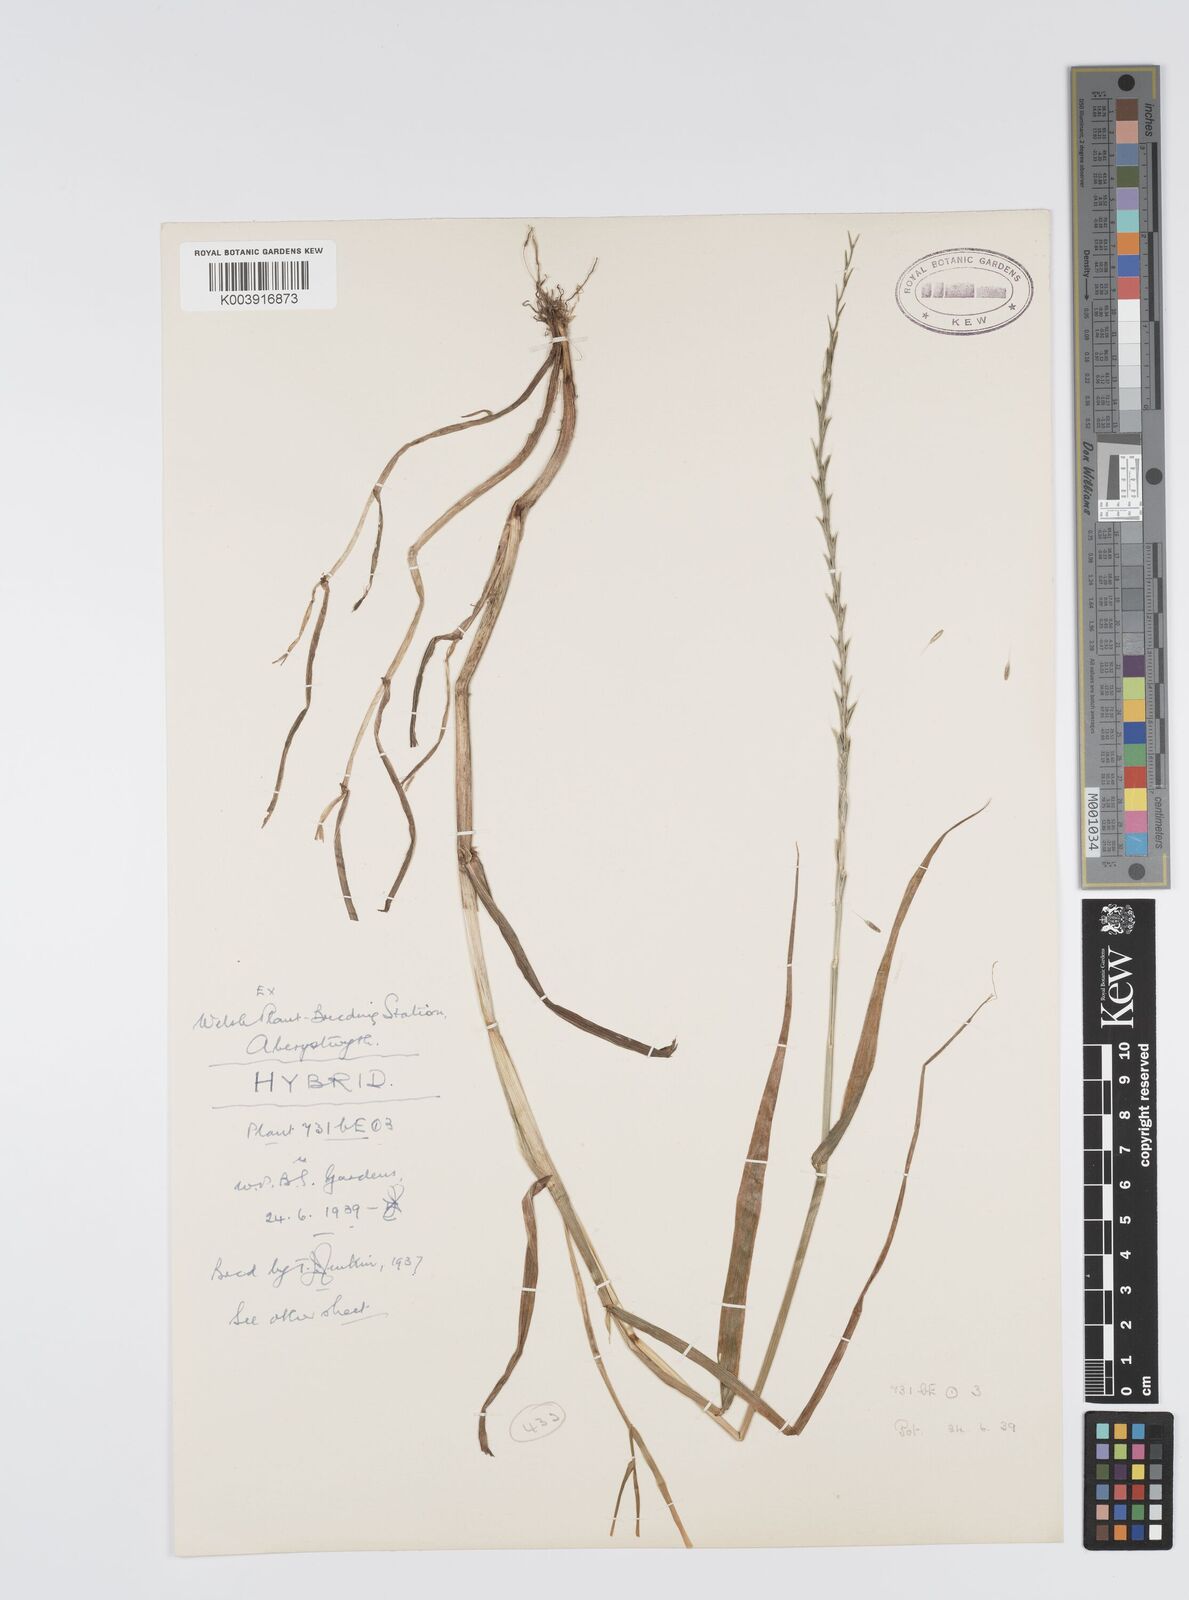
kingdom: Plantae
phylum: Tracheophyta
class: Liliopsida
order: Poales
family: Poaceae
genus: Lolium
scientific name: Lolium multiflorum
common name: Annual ryegrass
